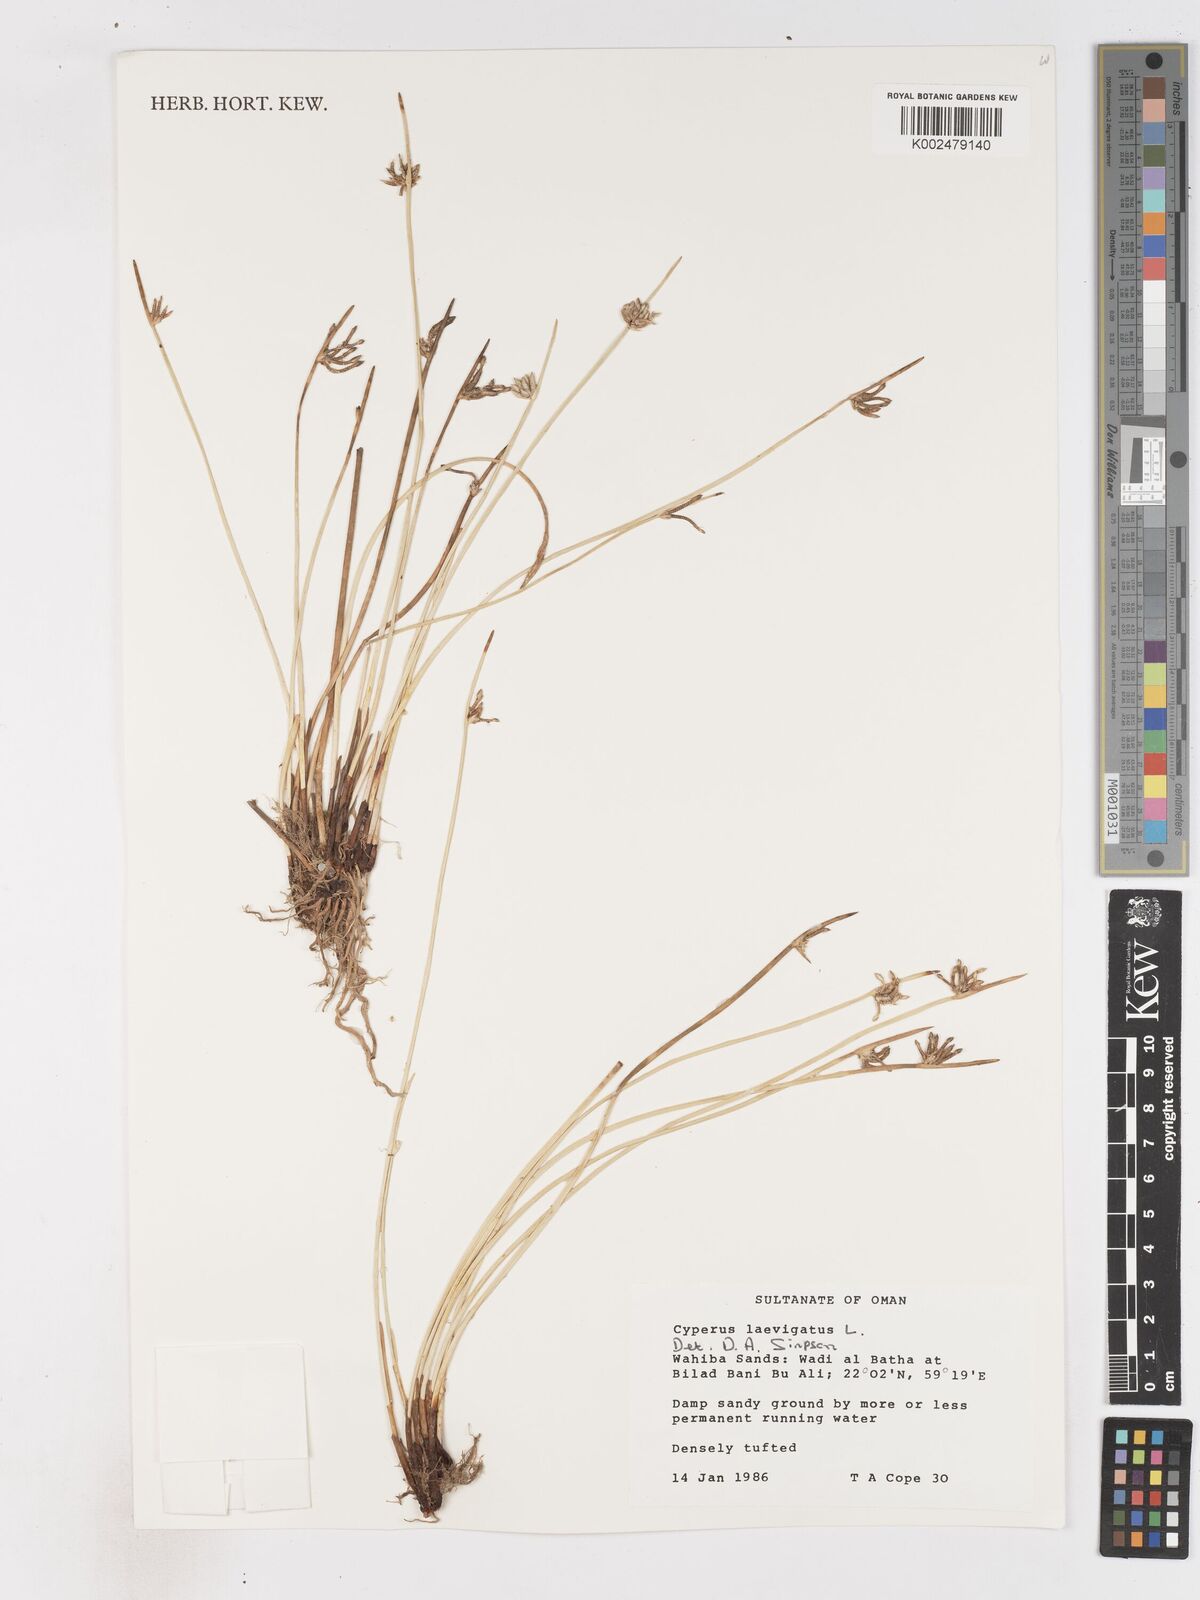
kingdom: Plantae
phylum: Tracheophyta
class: Liliopsida
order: Poales
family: Cyperaceae
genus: Cyperus
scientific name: Cyperus laevigatus
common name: Smooth flat sedge
